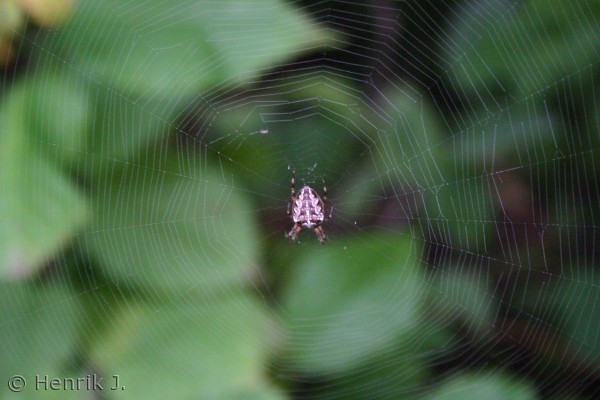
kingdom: Animalia
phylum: Arthropoda
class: Arachnida
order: Araneae
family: Araneidae
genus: Araneus
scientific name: Araneus diadematus
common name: Korsedderkop
